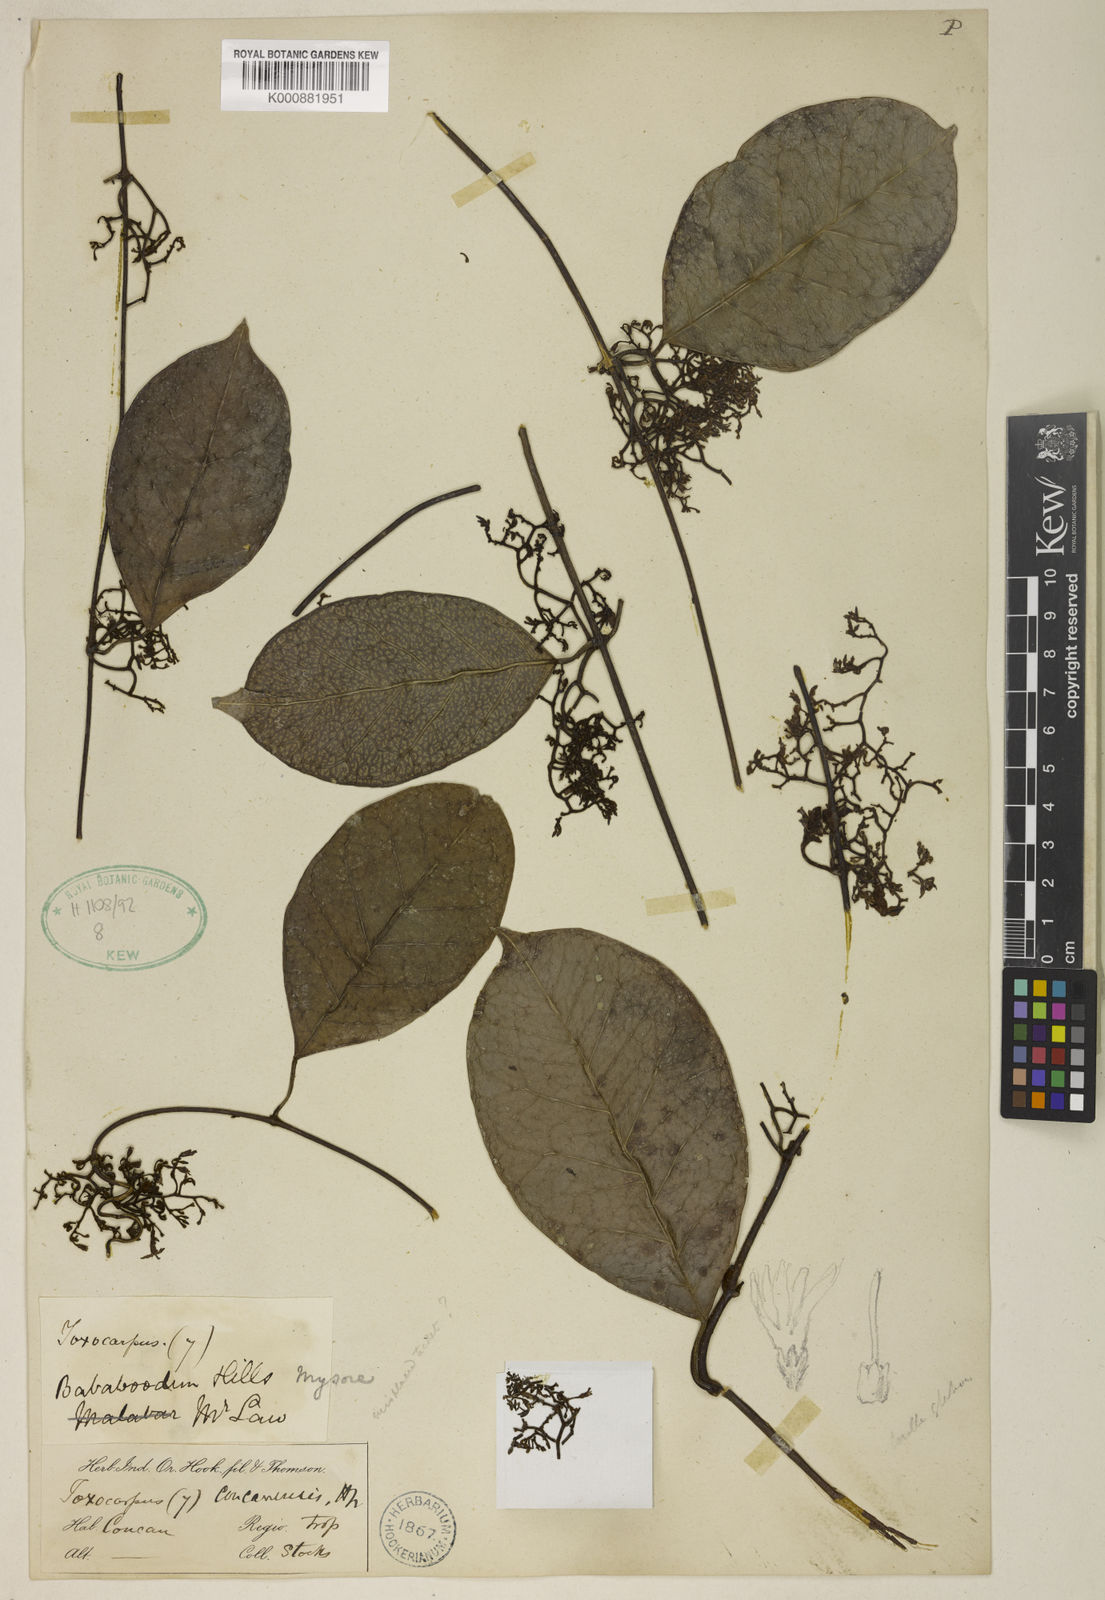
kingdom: Plantae
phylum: Tracheophyta
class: Magnoliopsida
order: Gentianales
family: Apocynaceae
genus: Toxocarpus
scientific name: Toxocarpus concanensis
